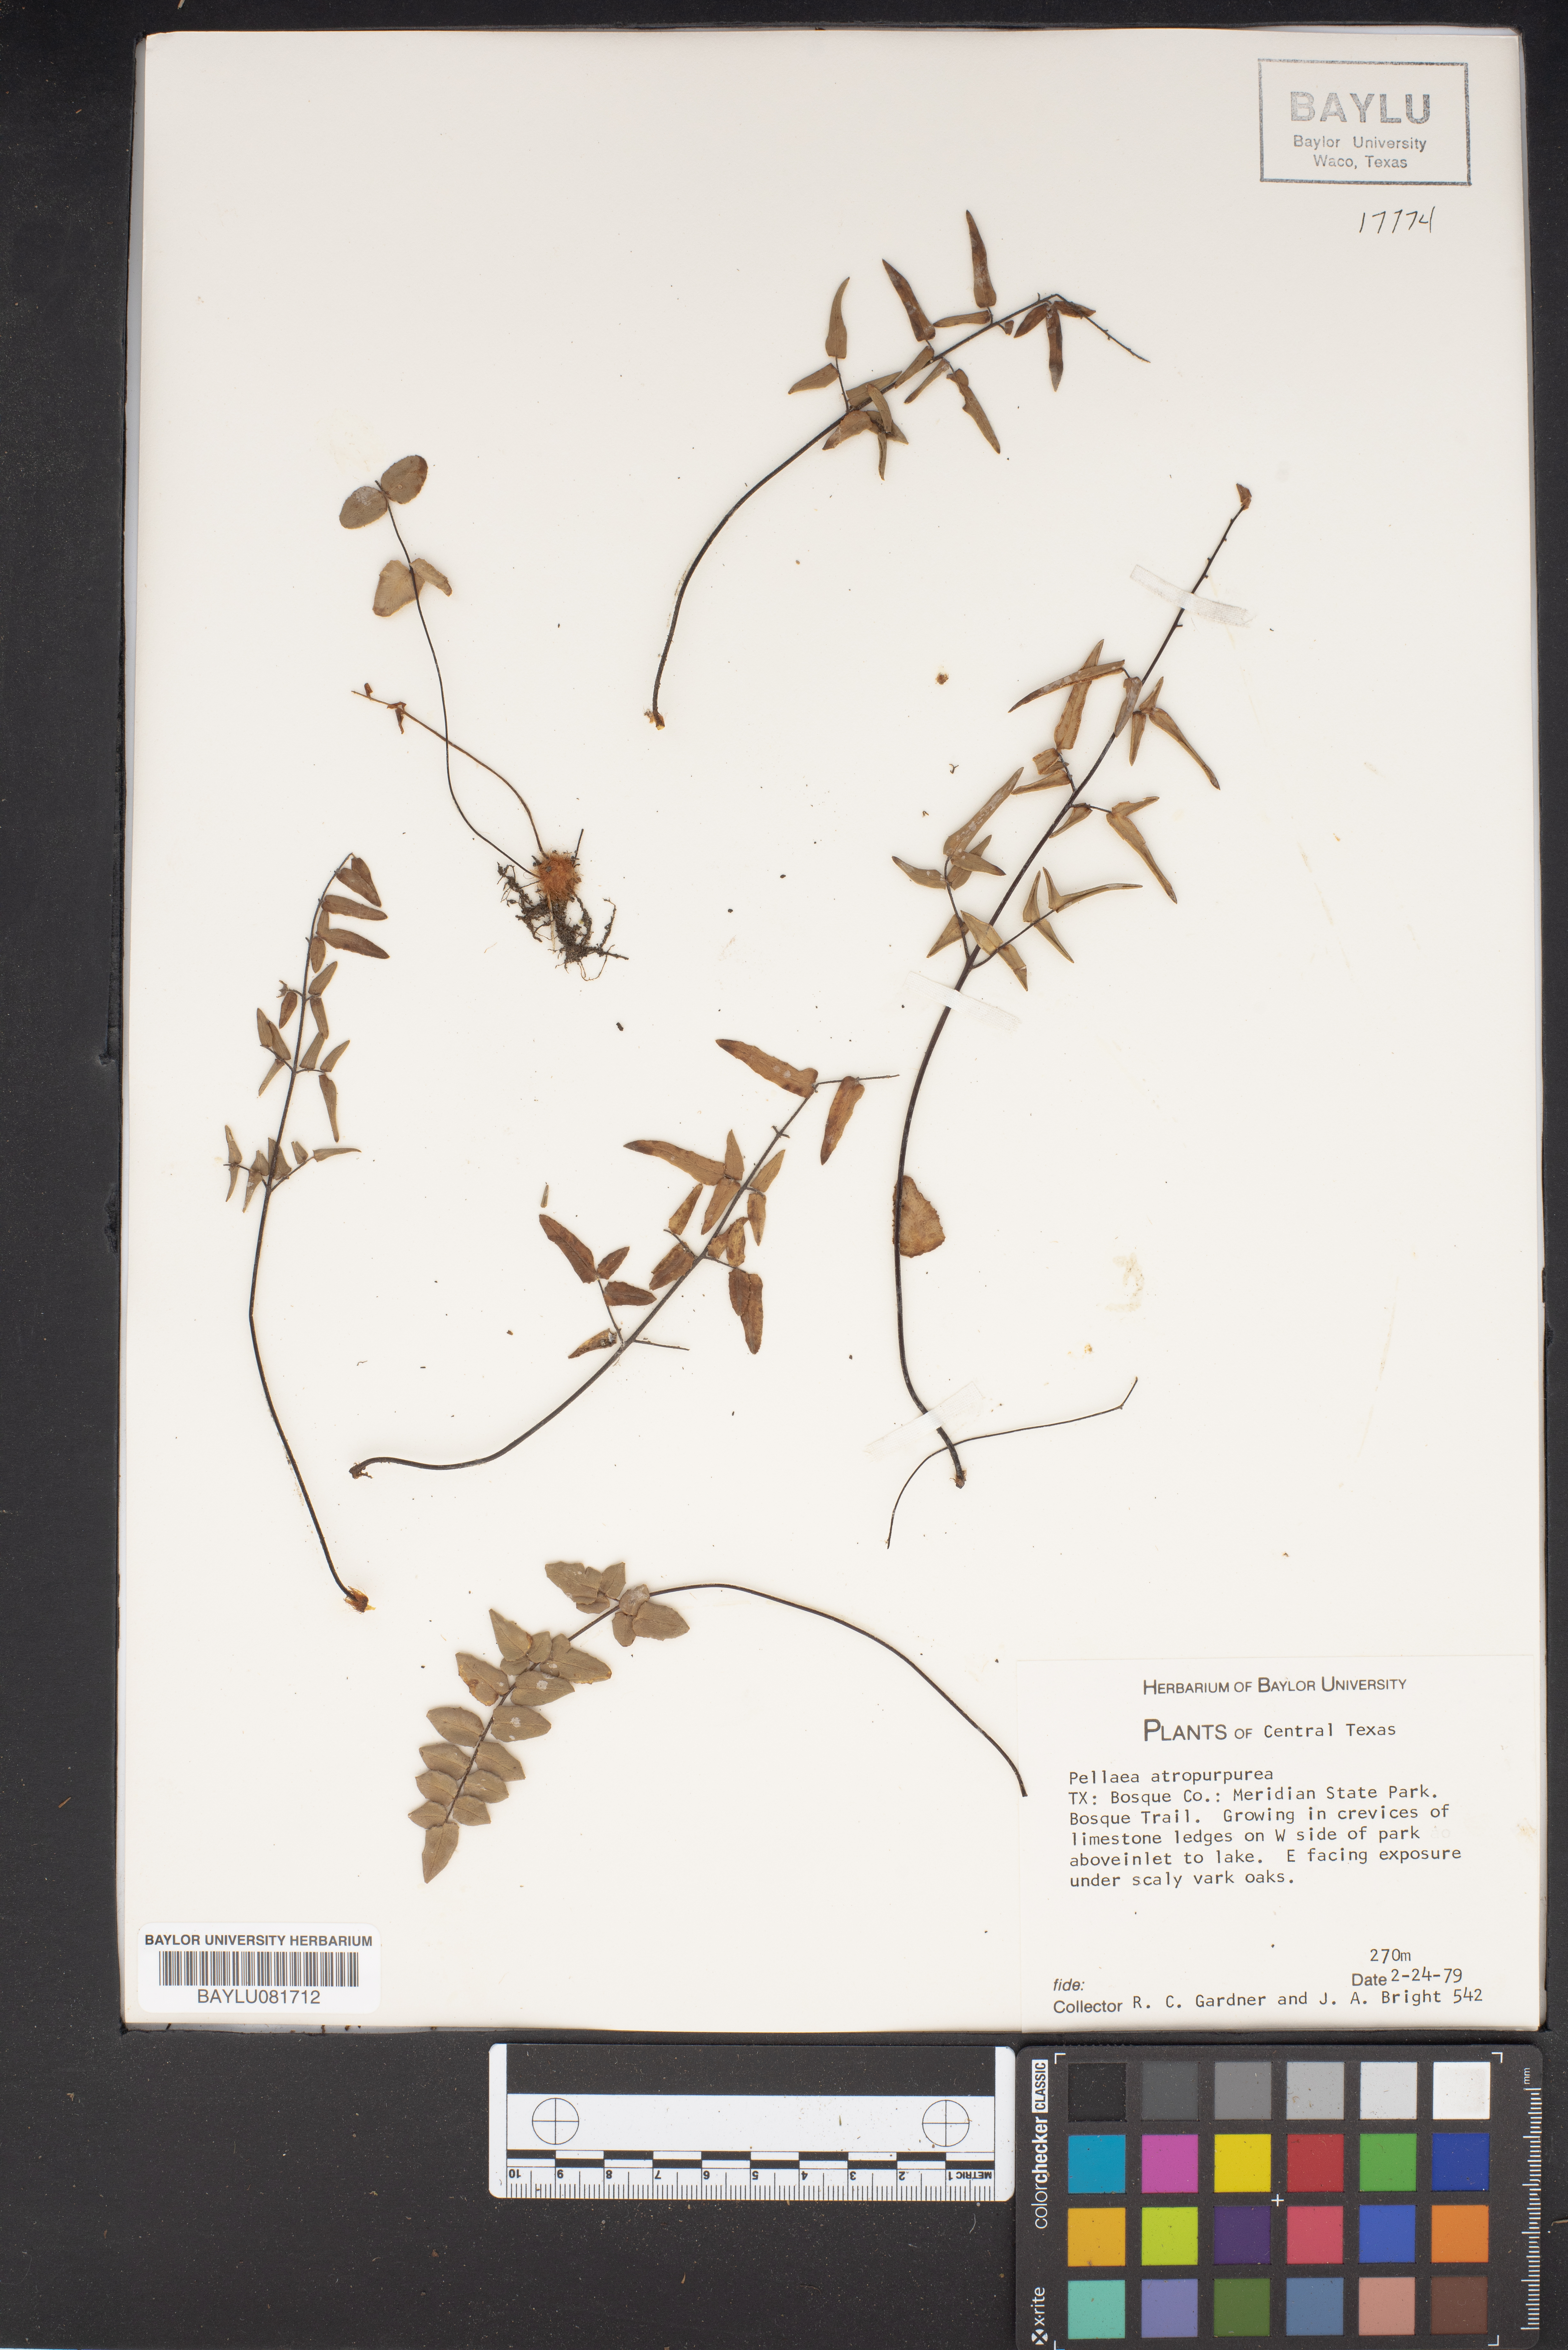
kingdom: Plantae
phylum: Tracheophyta
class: Polypodiopsida
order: Polypodiales
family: Pteridaceae
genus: Pellaea
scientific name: Pellaea atropurpurea
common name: Hairy cliffbrake
